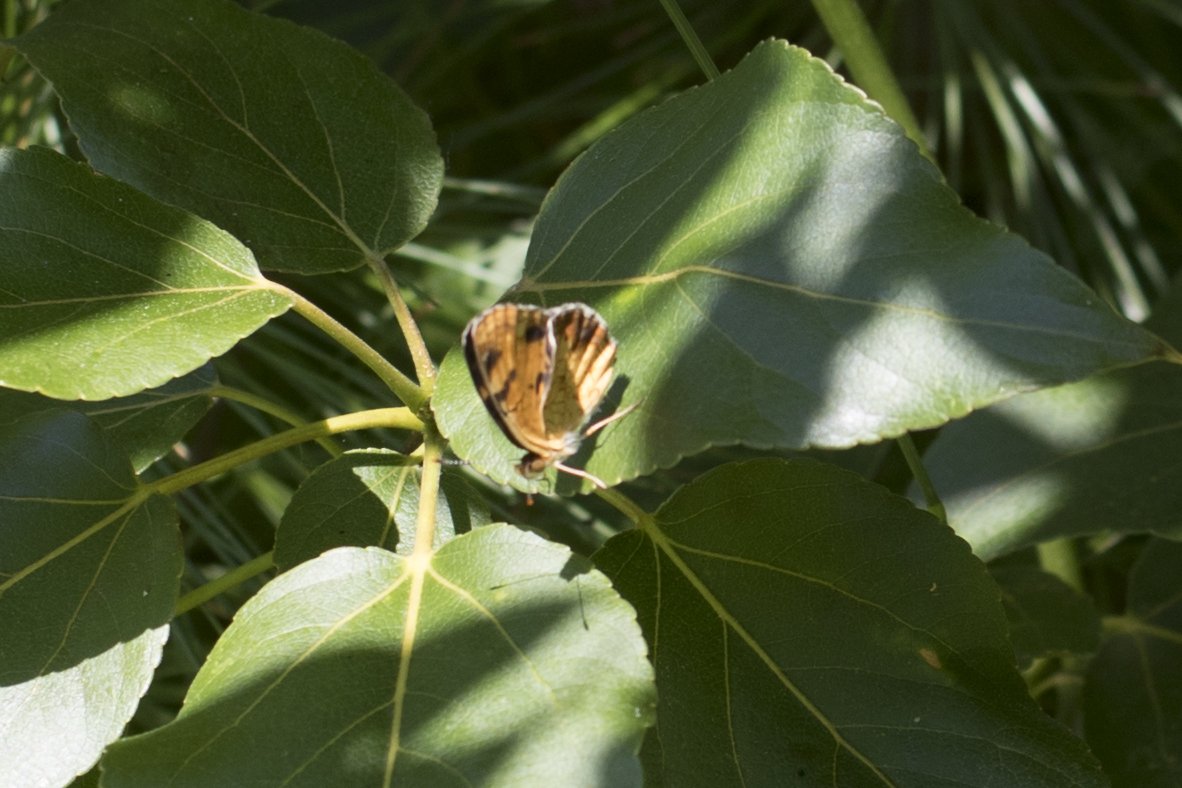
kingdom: Animalia
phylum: Arthropoda
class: Insecta
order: Lepidoptera
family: Nymphalidae
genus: Phyciodes
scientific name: Phyciodes
